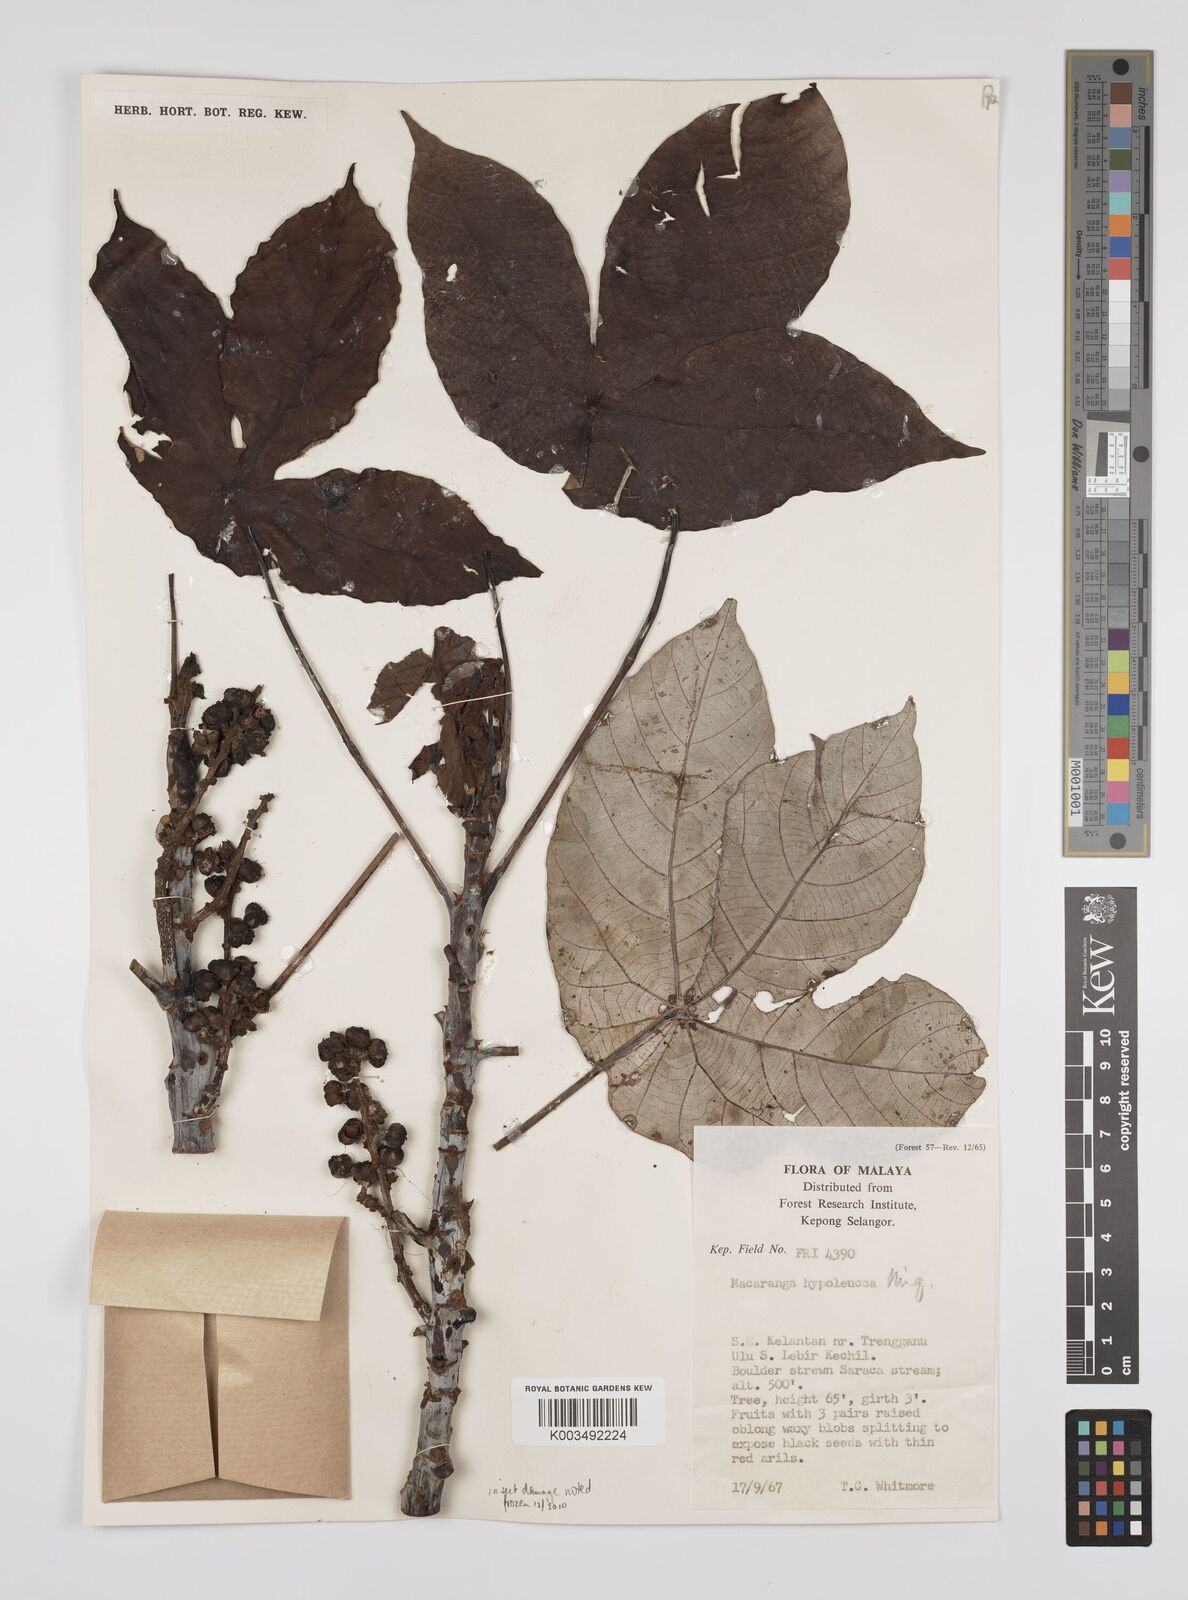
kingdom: Plantae
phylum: Tracheophyta
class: Magnoliopsida
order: Malpighiales
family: Euphorbiaceae
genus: Macaranga
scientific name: Macaranga hypoleuca
